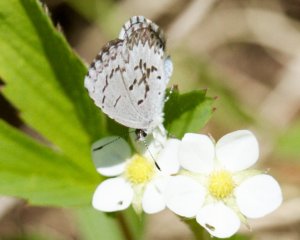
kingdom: Animalia
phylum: Arthropoda
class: Insecta
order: Lepidoptera
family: Lycaenidae
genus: Celastrina
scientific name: Celastrina lucia
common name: Northern Spring Azure
